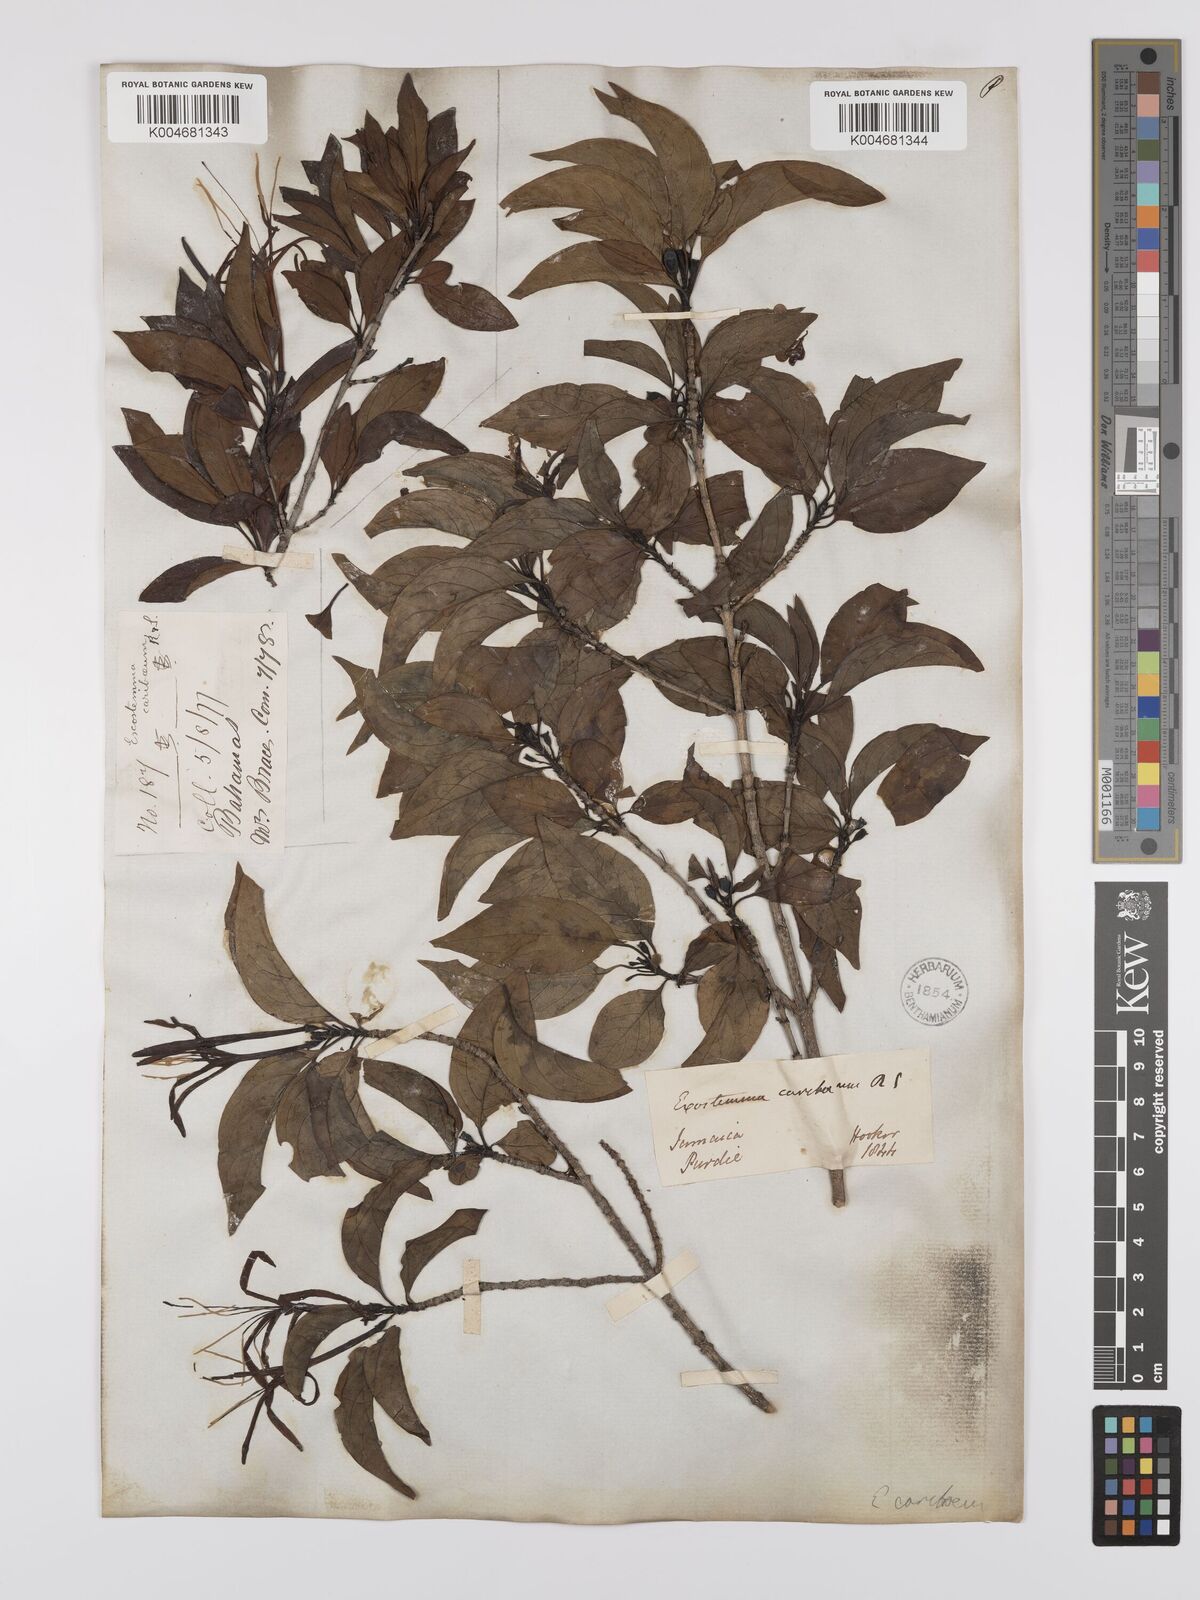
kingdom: Plantae
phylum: Tracheophyta
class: Magnoliopsida
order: Gentianales
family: Rubiaceae
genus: Exostema
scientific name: Exostema caribaeum
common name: Princewood
